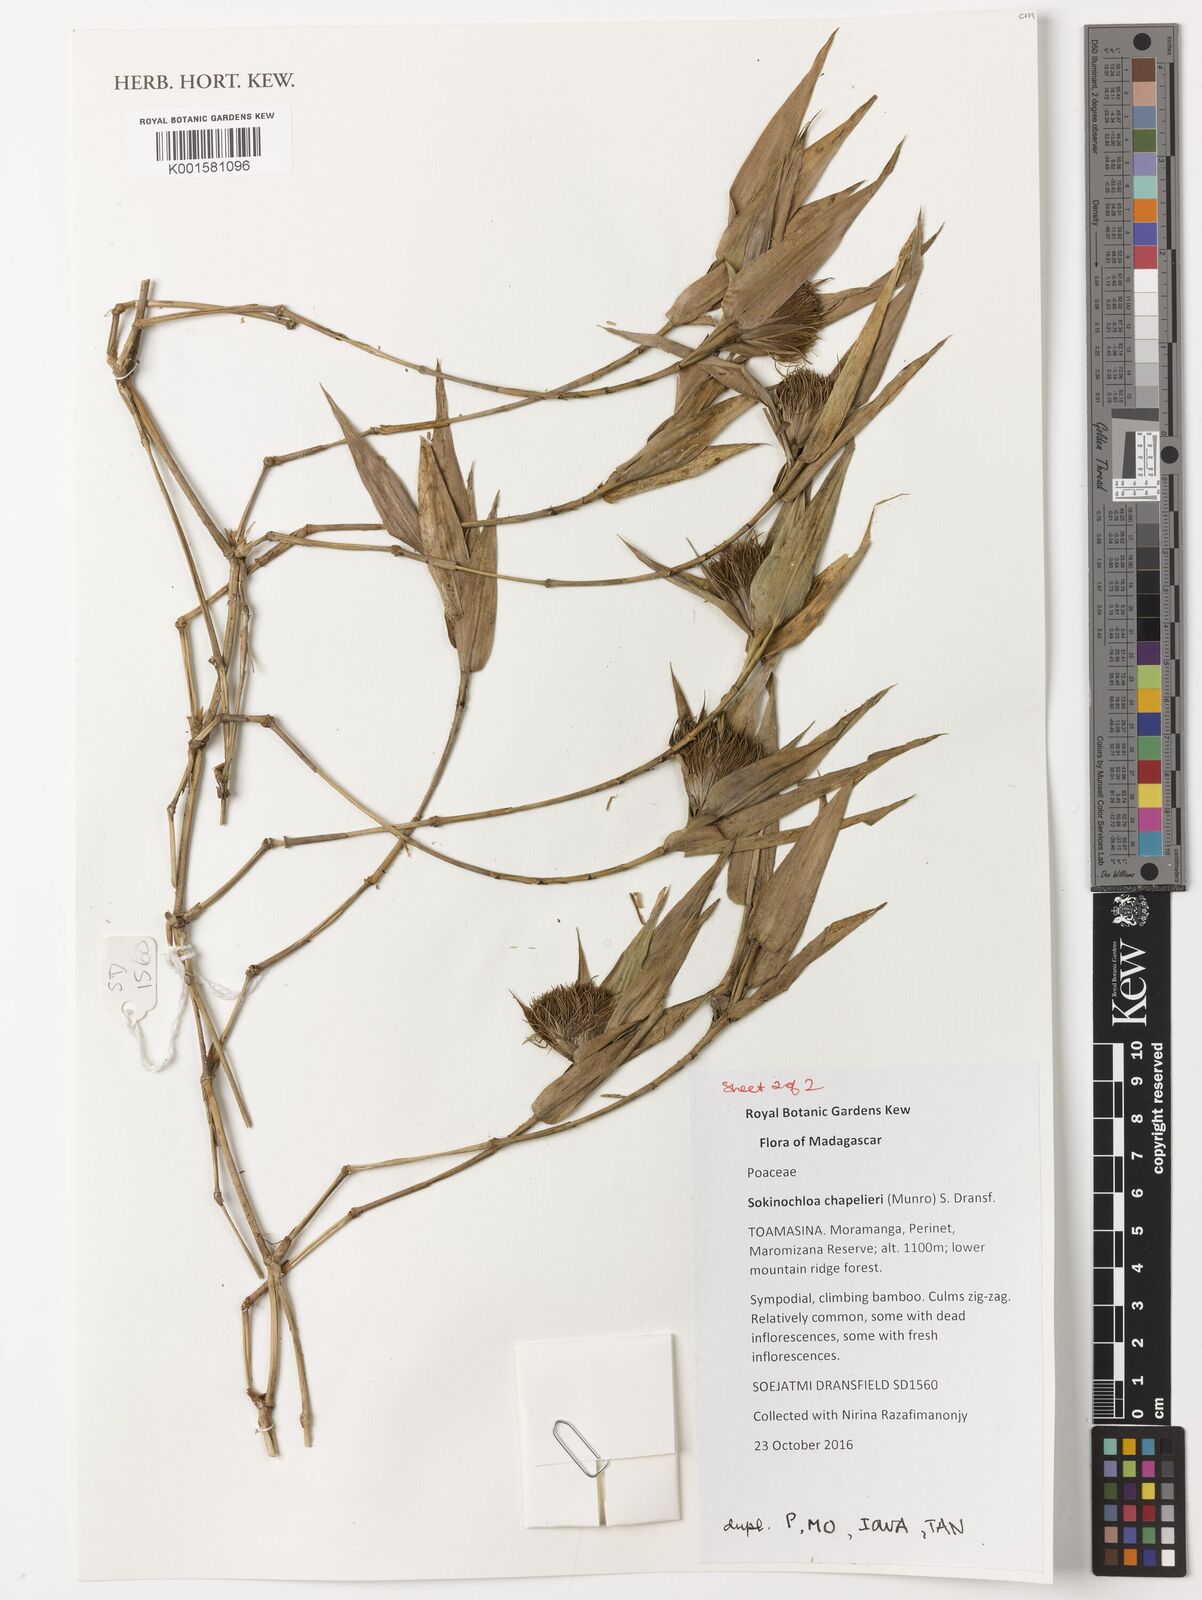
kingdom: Plantae
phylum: Tracheophyta
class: Liliopsida
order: Poales
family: Poaceae
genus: Sokinochloa
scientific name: Sokinochloa chapelieri
